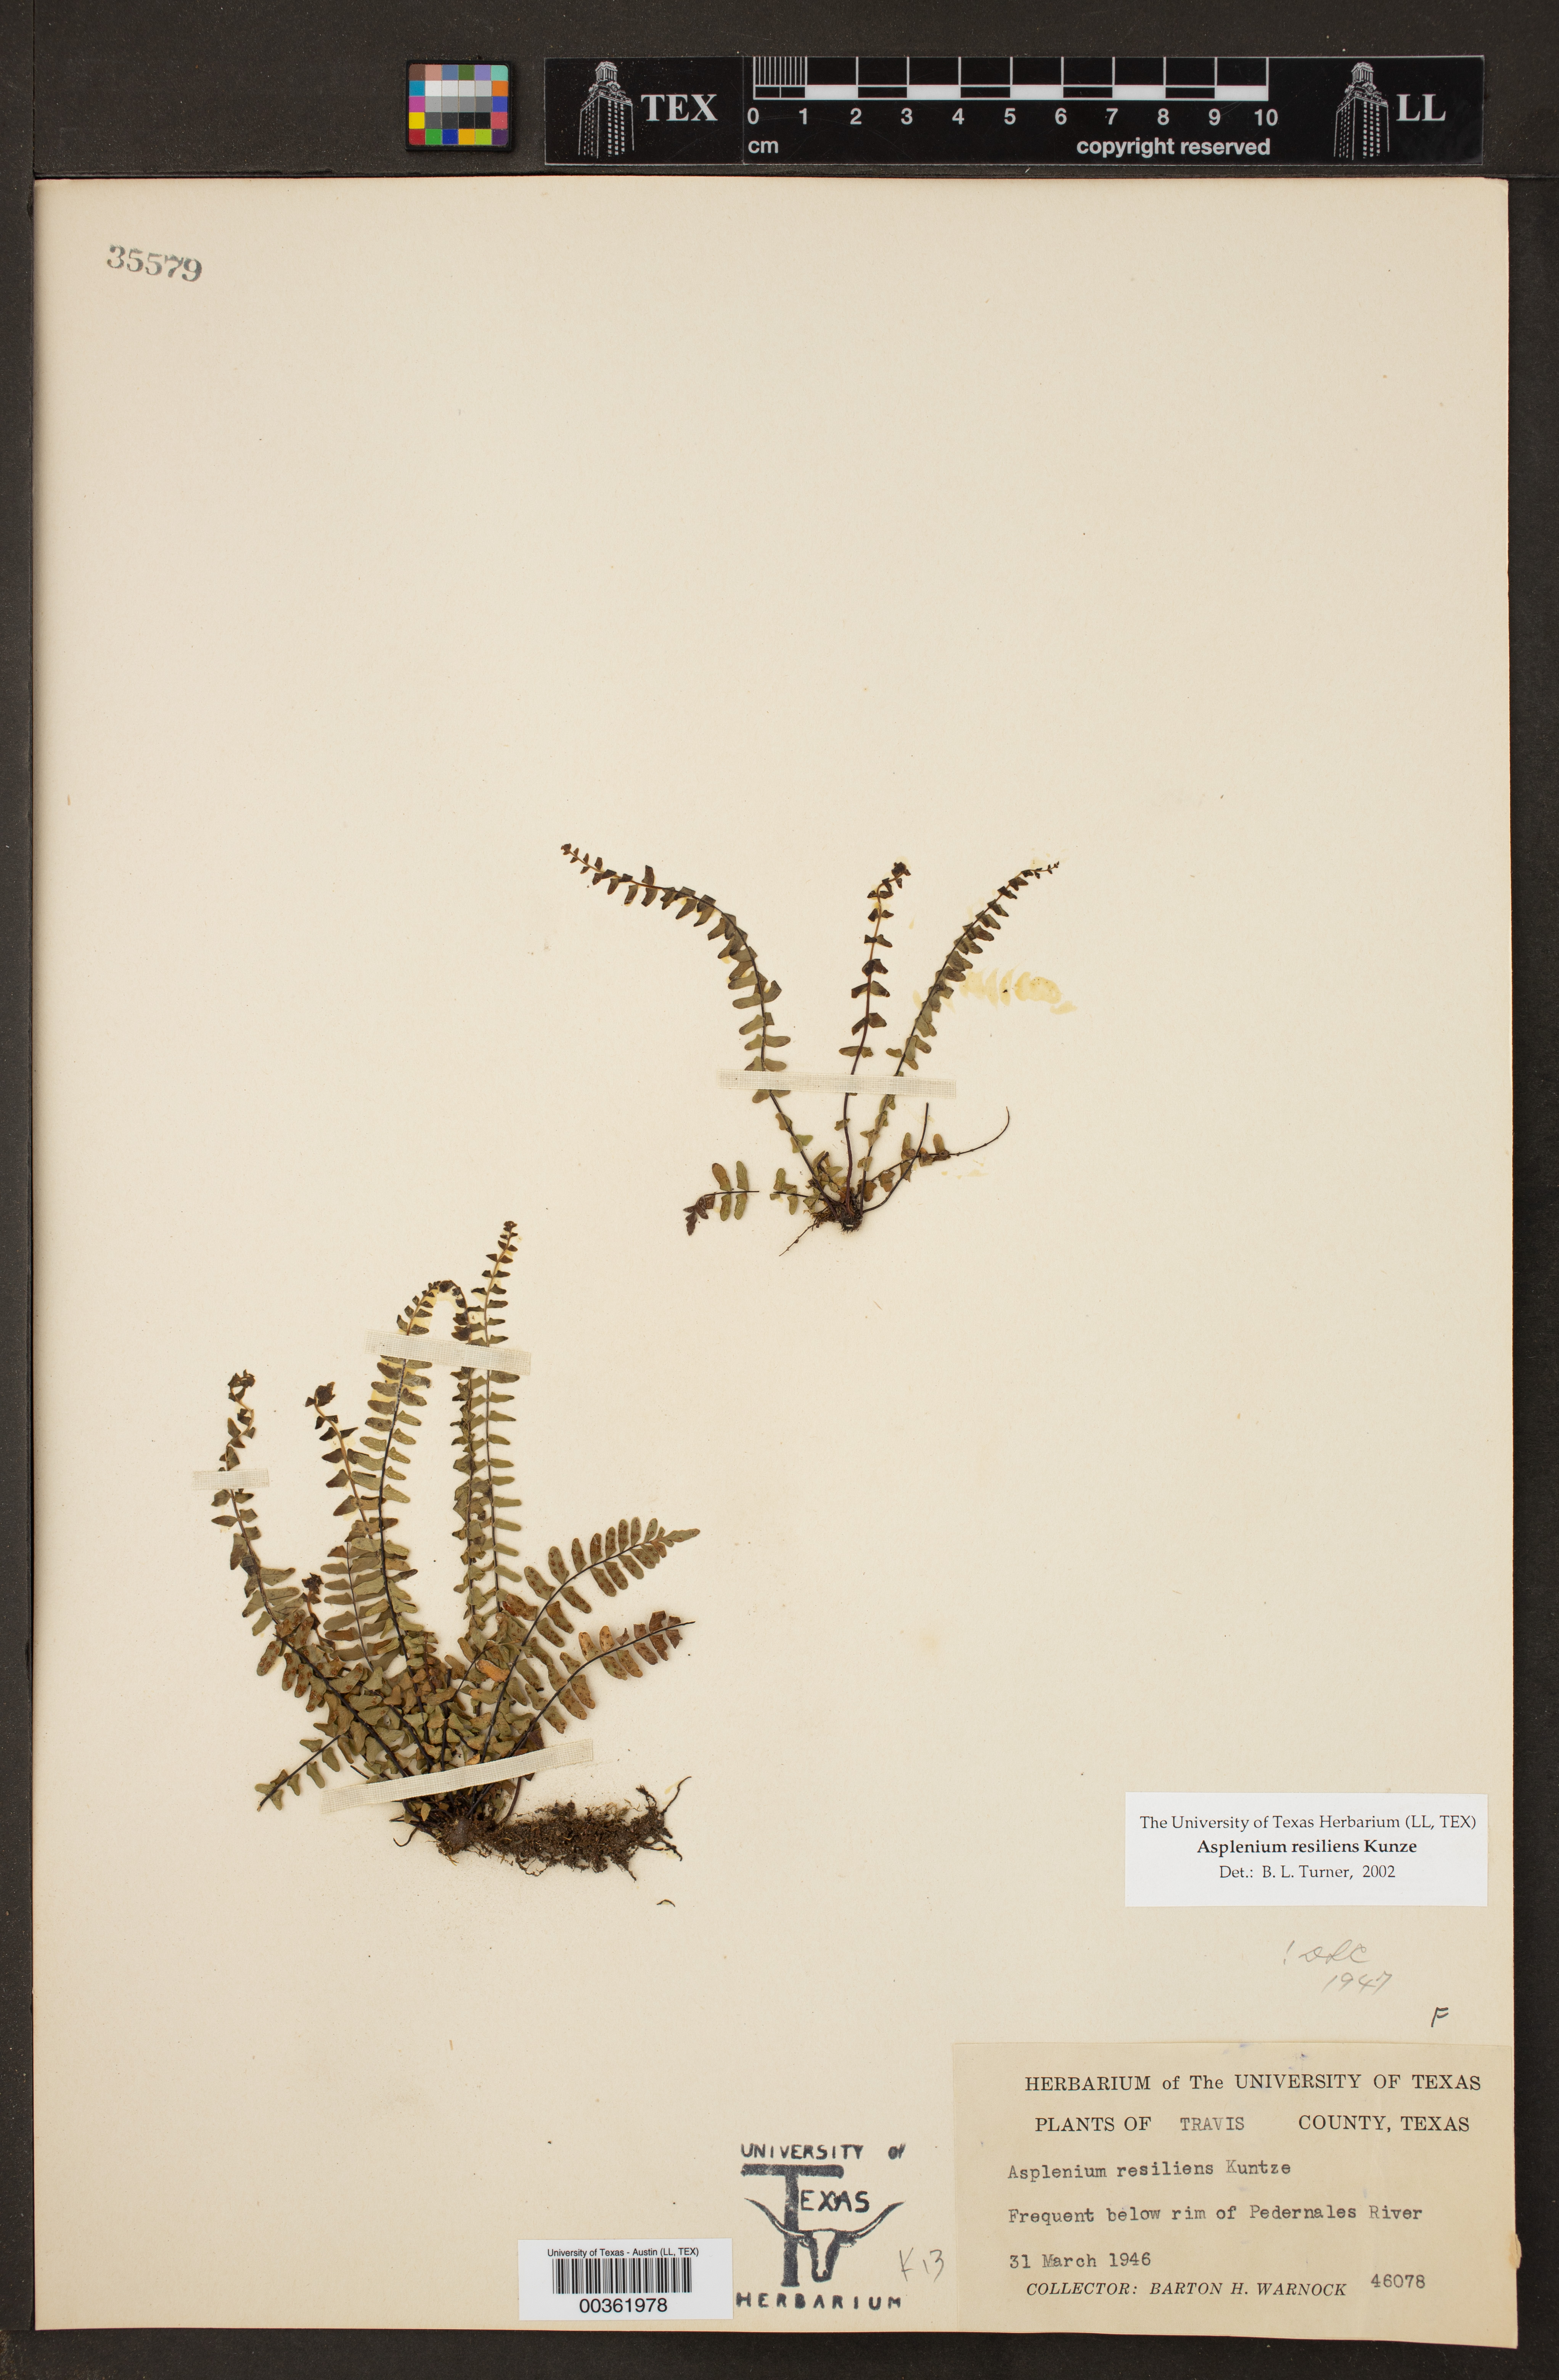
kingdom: Plantae
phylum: Tracheophyta
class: Polypodiopsida
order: Polypodiales
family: Aspleniaceae
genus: Asplenium
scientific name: Asplenium resiliens
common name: Blackstem spleenwort
